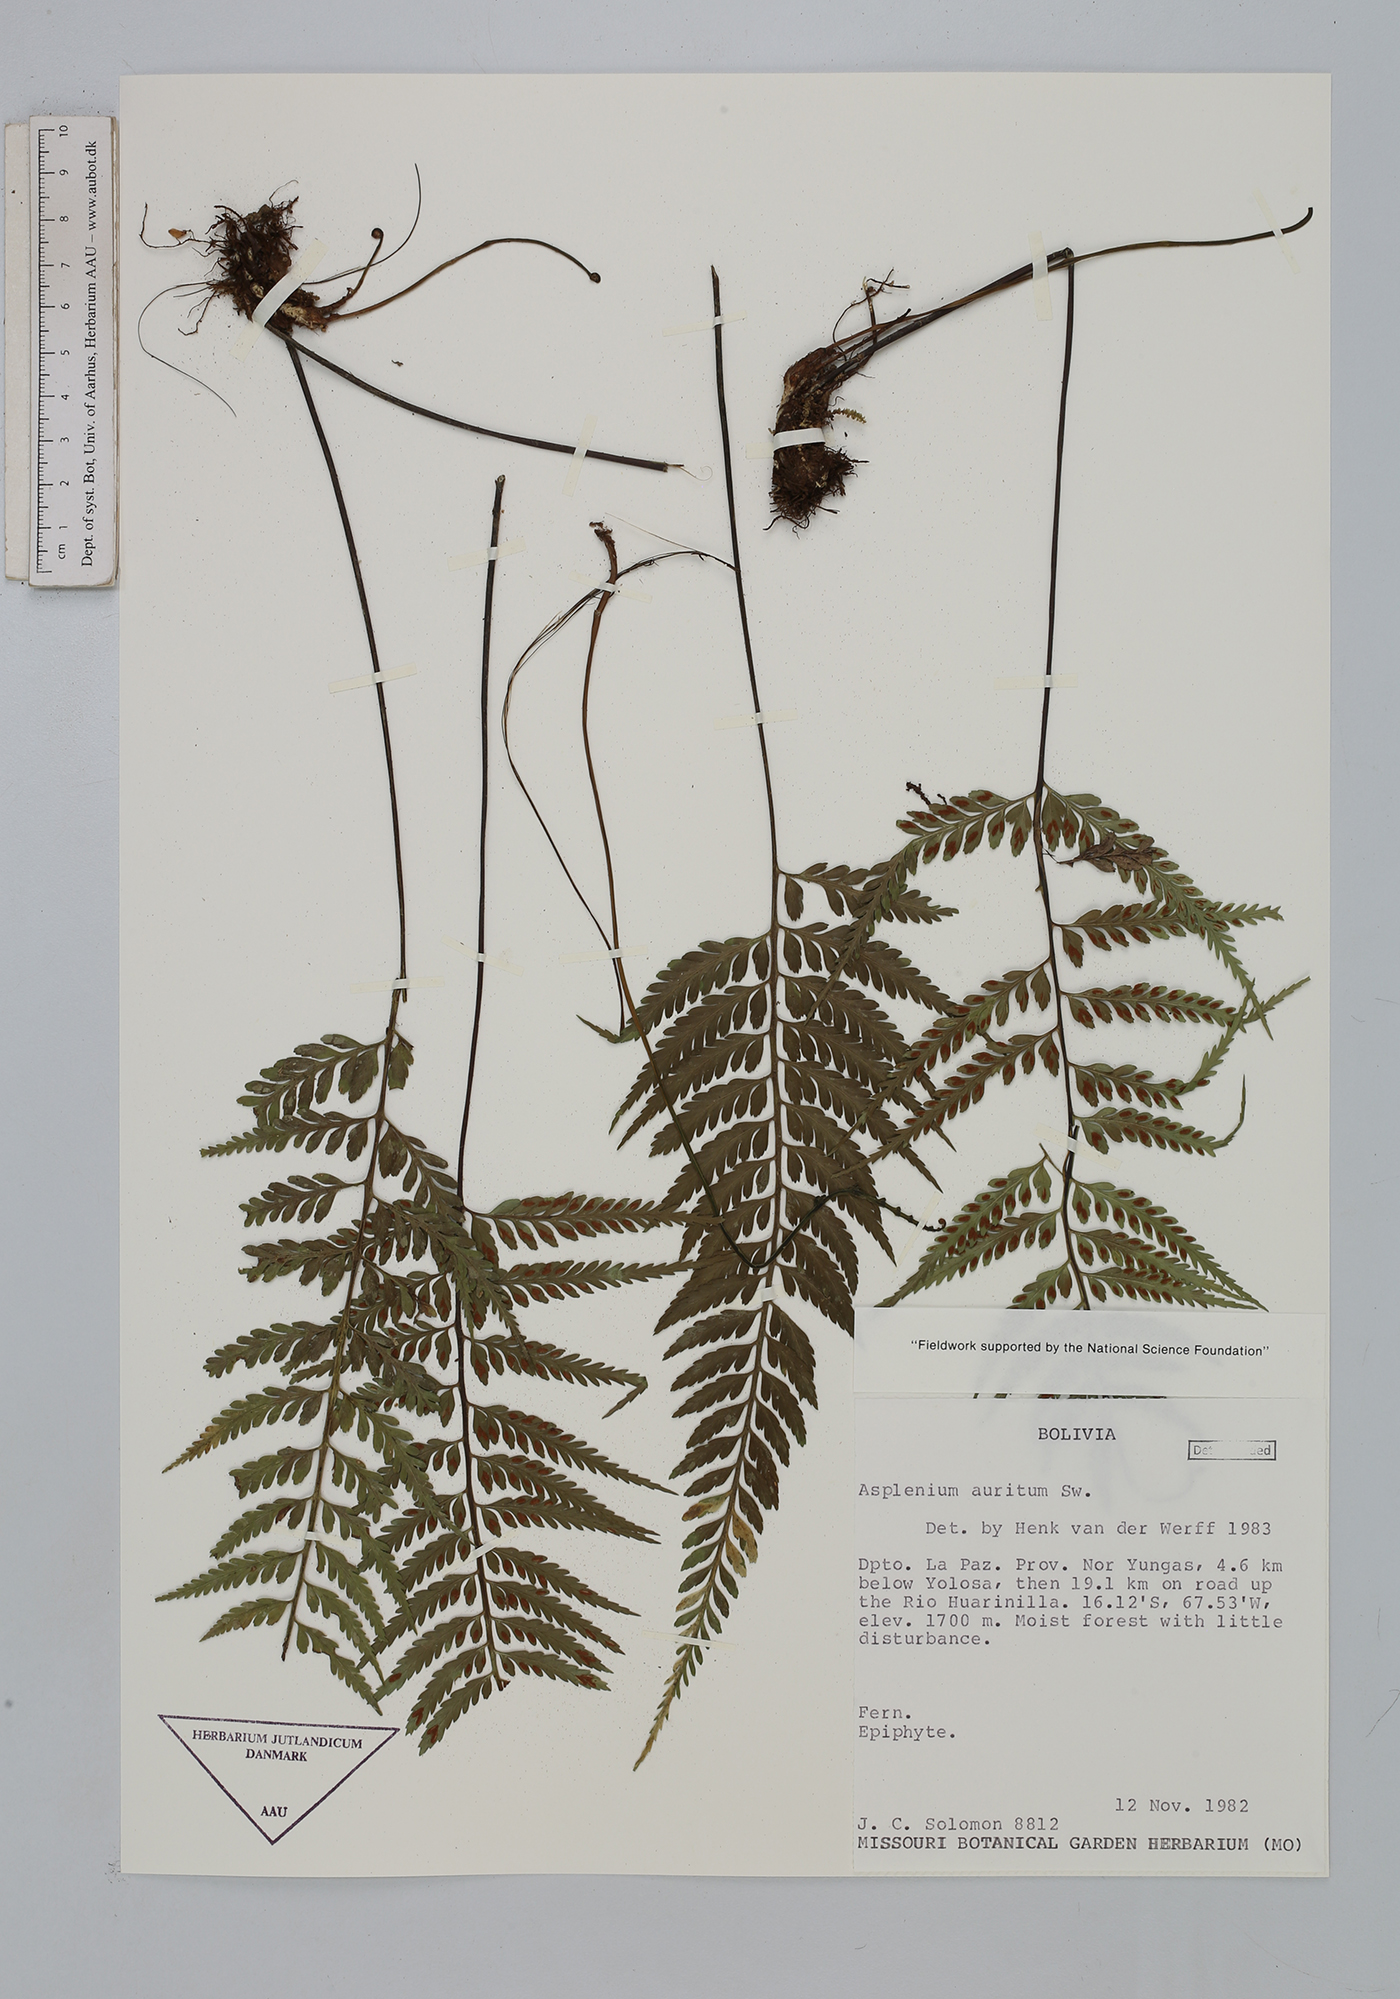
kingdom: Plantae
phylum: Tracheophyta
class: Polypodiopsida
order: Polypodiales
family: Aspleniaceae
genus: Asplenium
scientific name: Asplenium auritum
